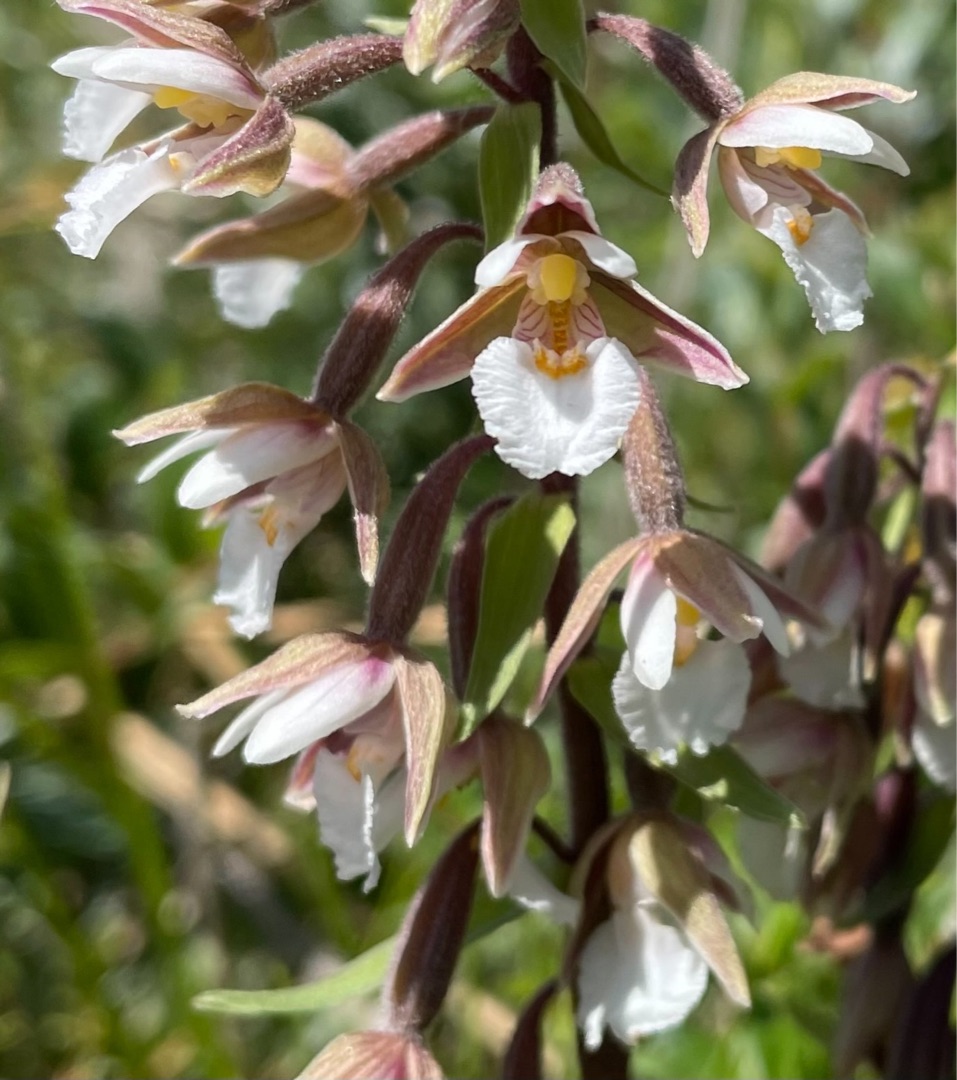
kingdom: Plantae
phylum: Tracheophyta
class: Liliopsida
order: Asparagales
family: Orchidaceae
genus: Epipactis
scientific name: Epipactis palustris
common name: Sump-hullæbe
